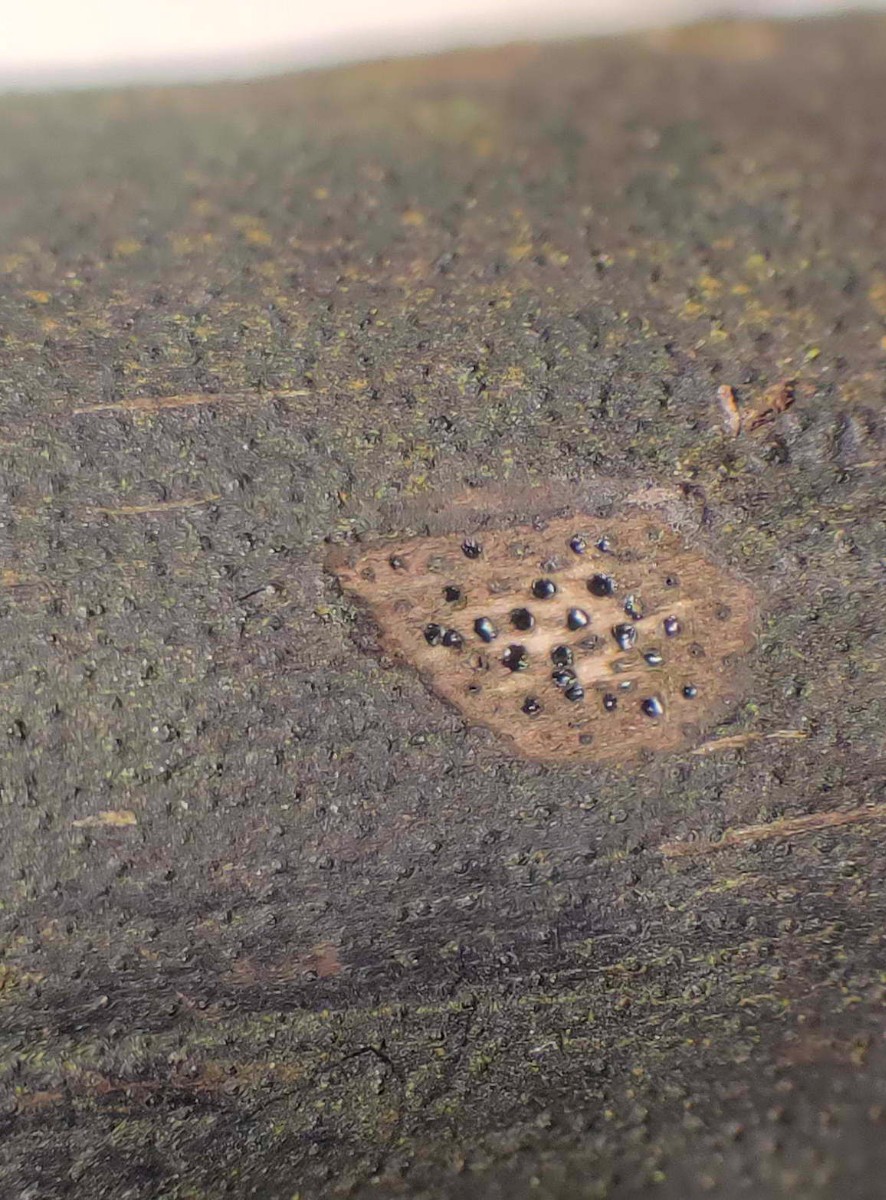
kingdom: Fungi
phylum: Ascomycota
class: Sordariomycetes
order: Xylariales
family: Diatrypaceae
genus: Eutypa
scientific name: Eutypa sparsa
